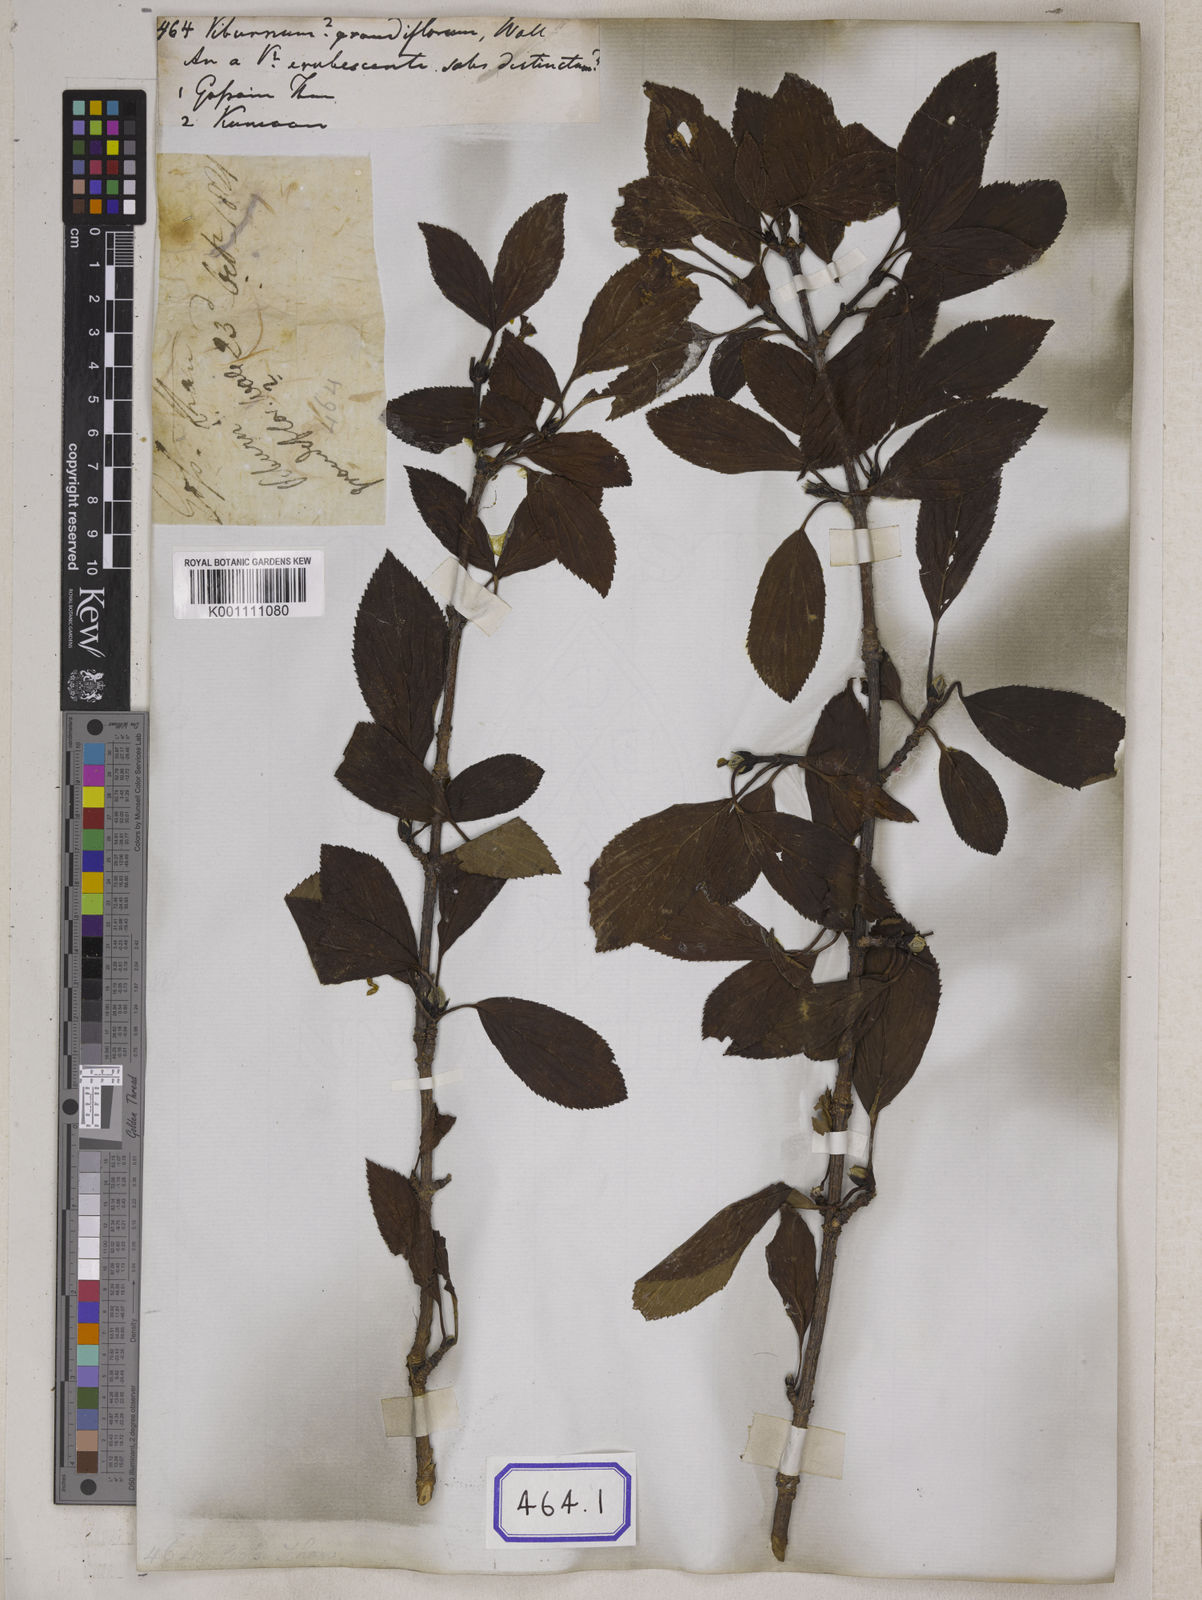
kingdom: Plantae
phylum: Tracheophyta
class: Magnoliopsida
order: Dipsacales
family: Viburnaceae
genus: Viburnum
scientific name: Viburnum
